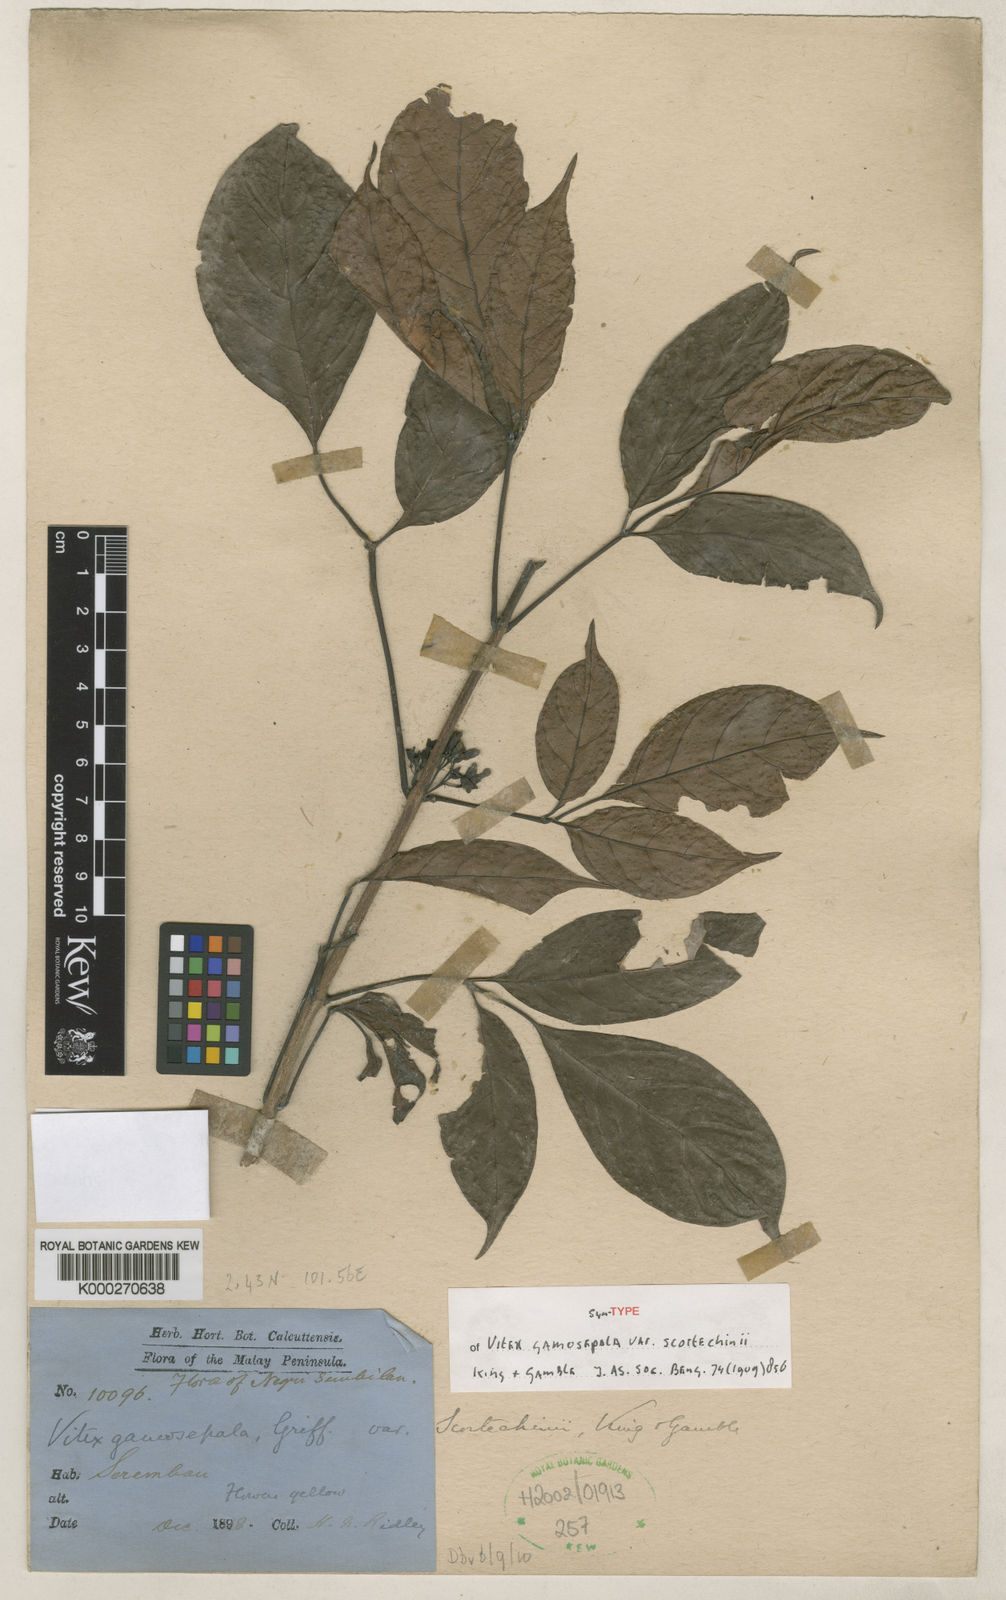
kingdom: Plantae
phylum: Tracheophyta
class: Magnoliopsida
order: Lamiales
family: Lamiaceae
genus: Vitex
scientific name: Vitex gamosepala
